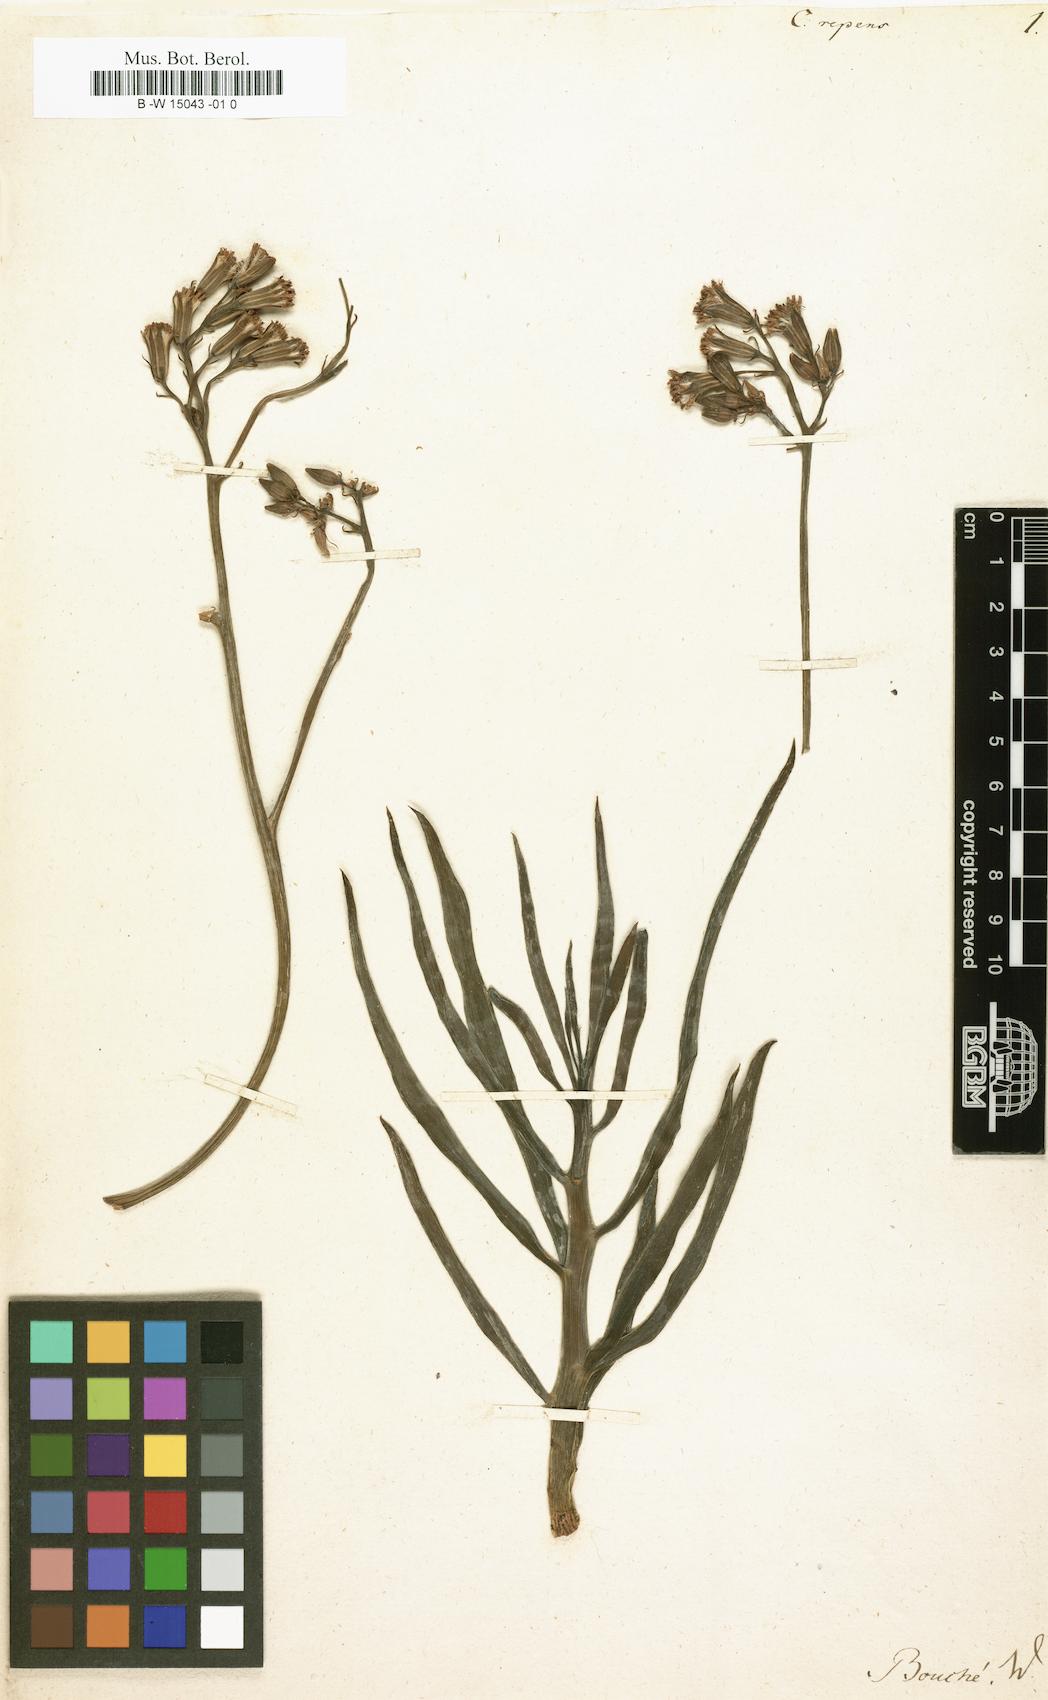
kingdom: Plantae
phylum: Tracheophyta
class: Magnoliopsida
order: Asterales
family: Asteraceae
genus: Curio
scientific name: Curio repens
